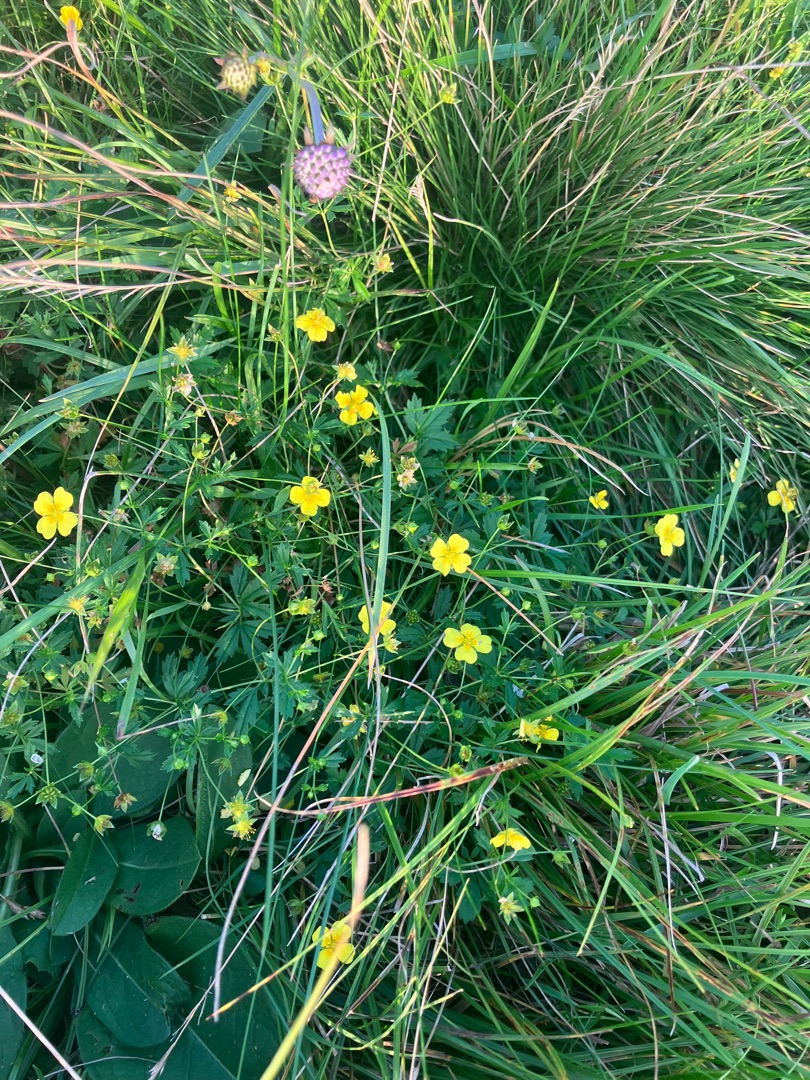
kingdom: Plantae
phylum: Tracheophyta
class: Magnoliopsida
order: Rosales
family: Rosaceae
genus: Potentilla
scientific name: Potentilla erecta
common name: Tormentil
